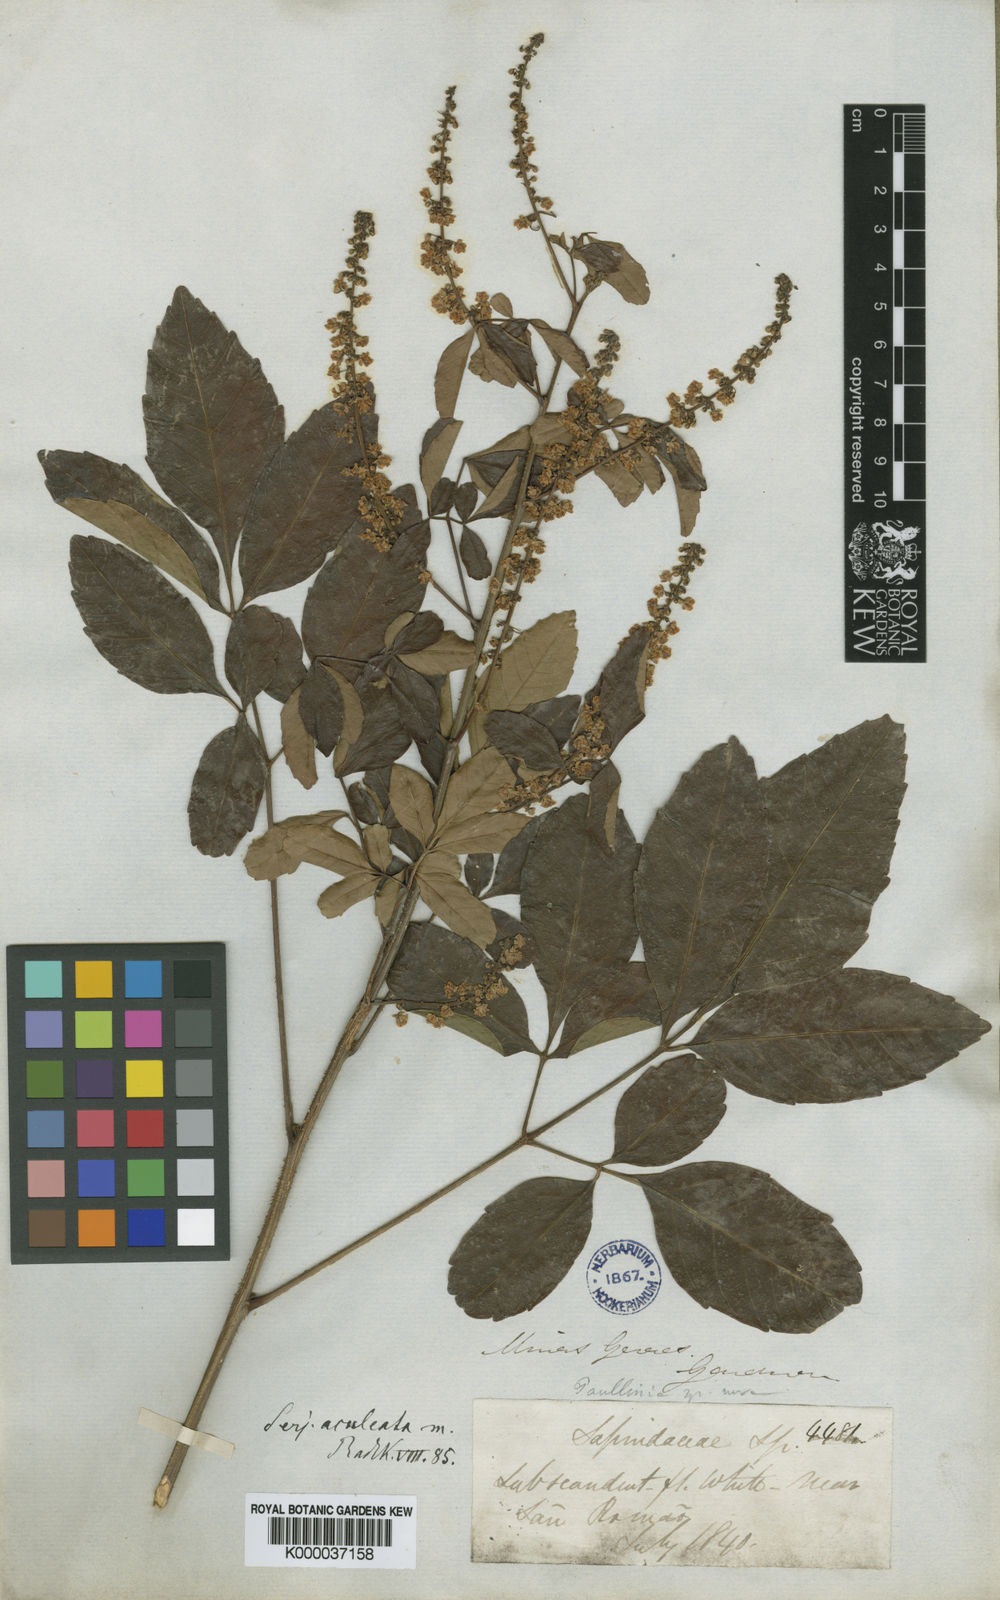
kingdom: Plantae
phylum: Tracheophyta
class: Magnoliopsida
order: Sapindales
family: Sapindaceae
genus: Serjania
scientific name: Serjania aculeata
